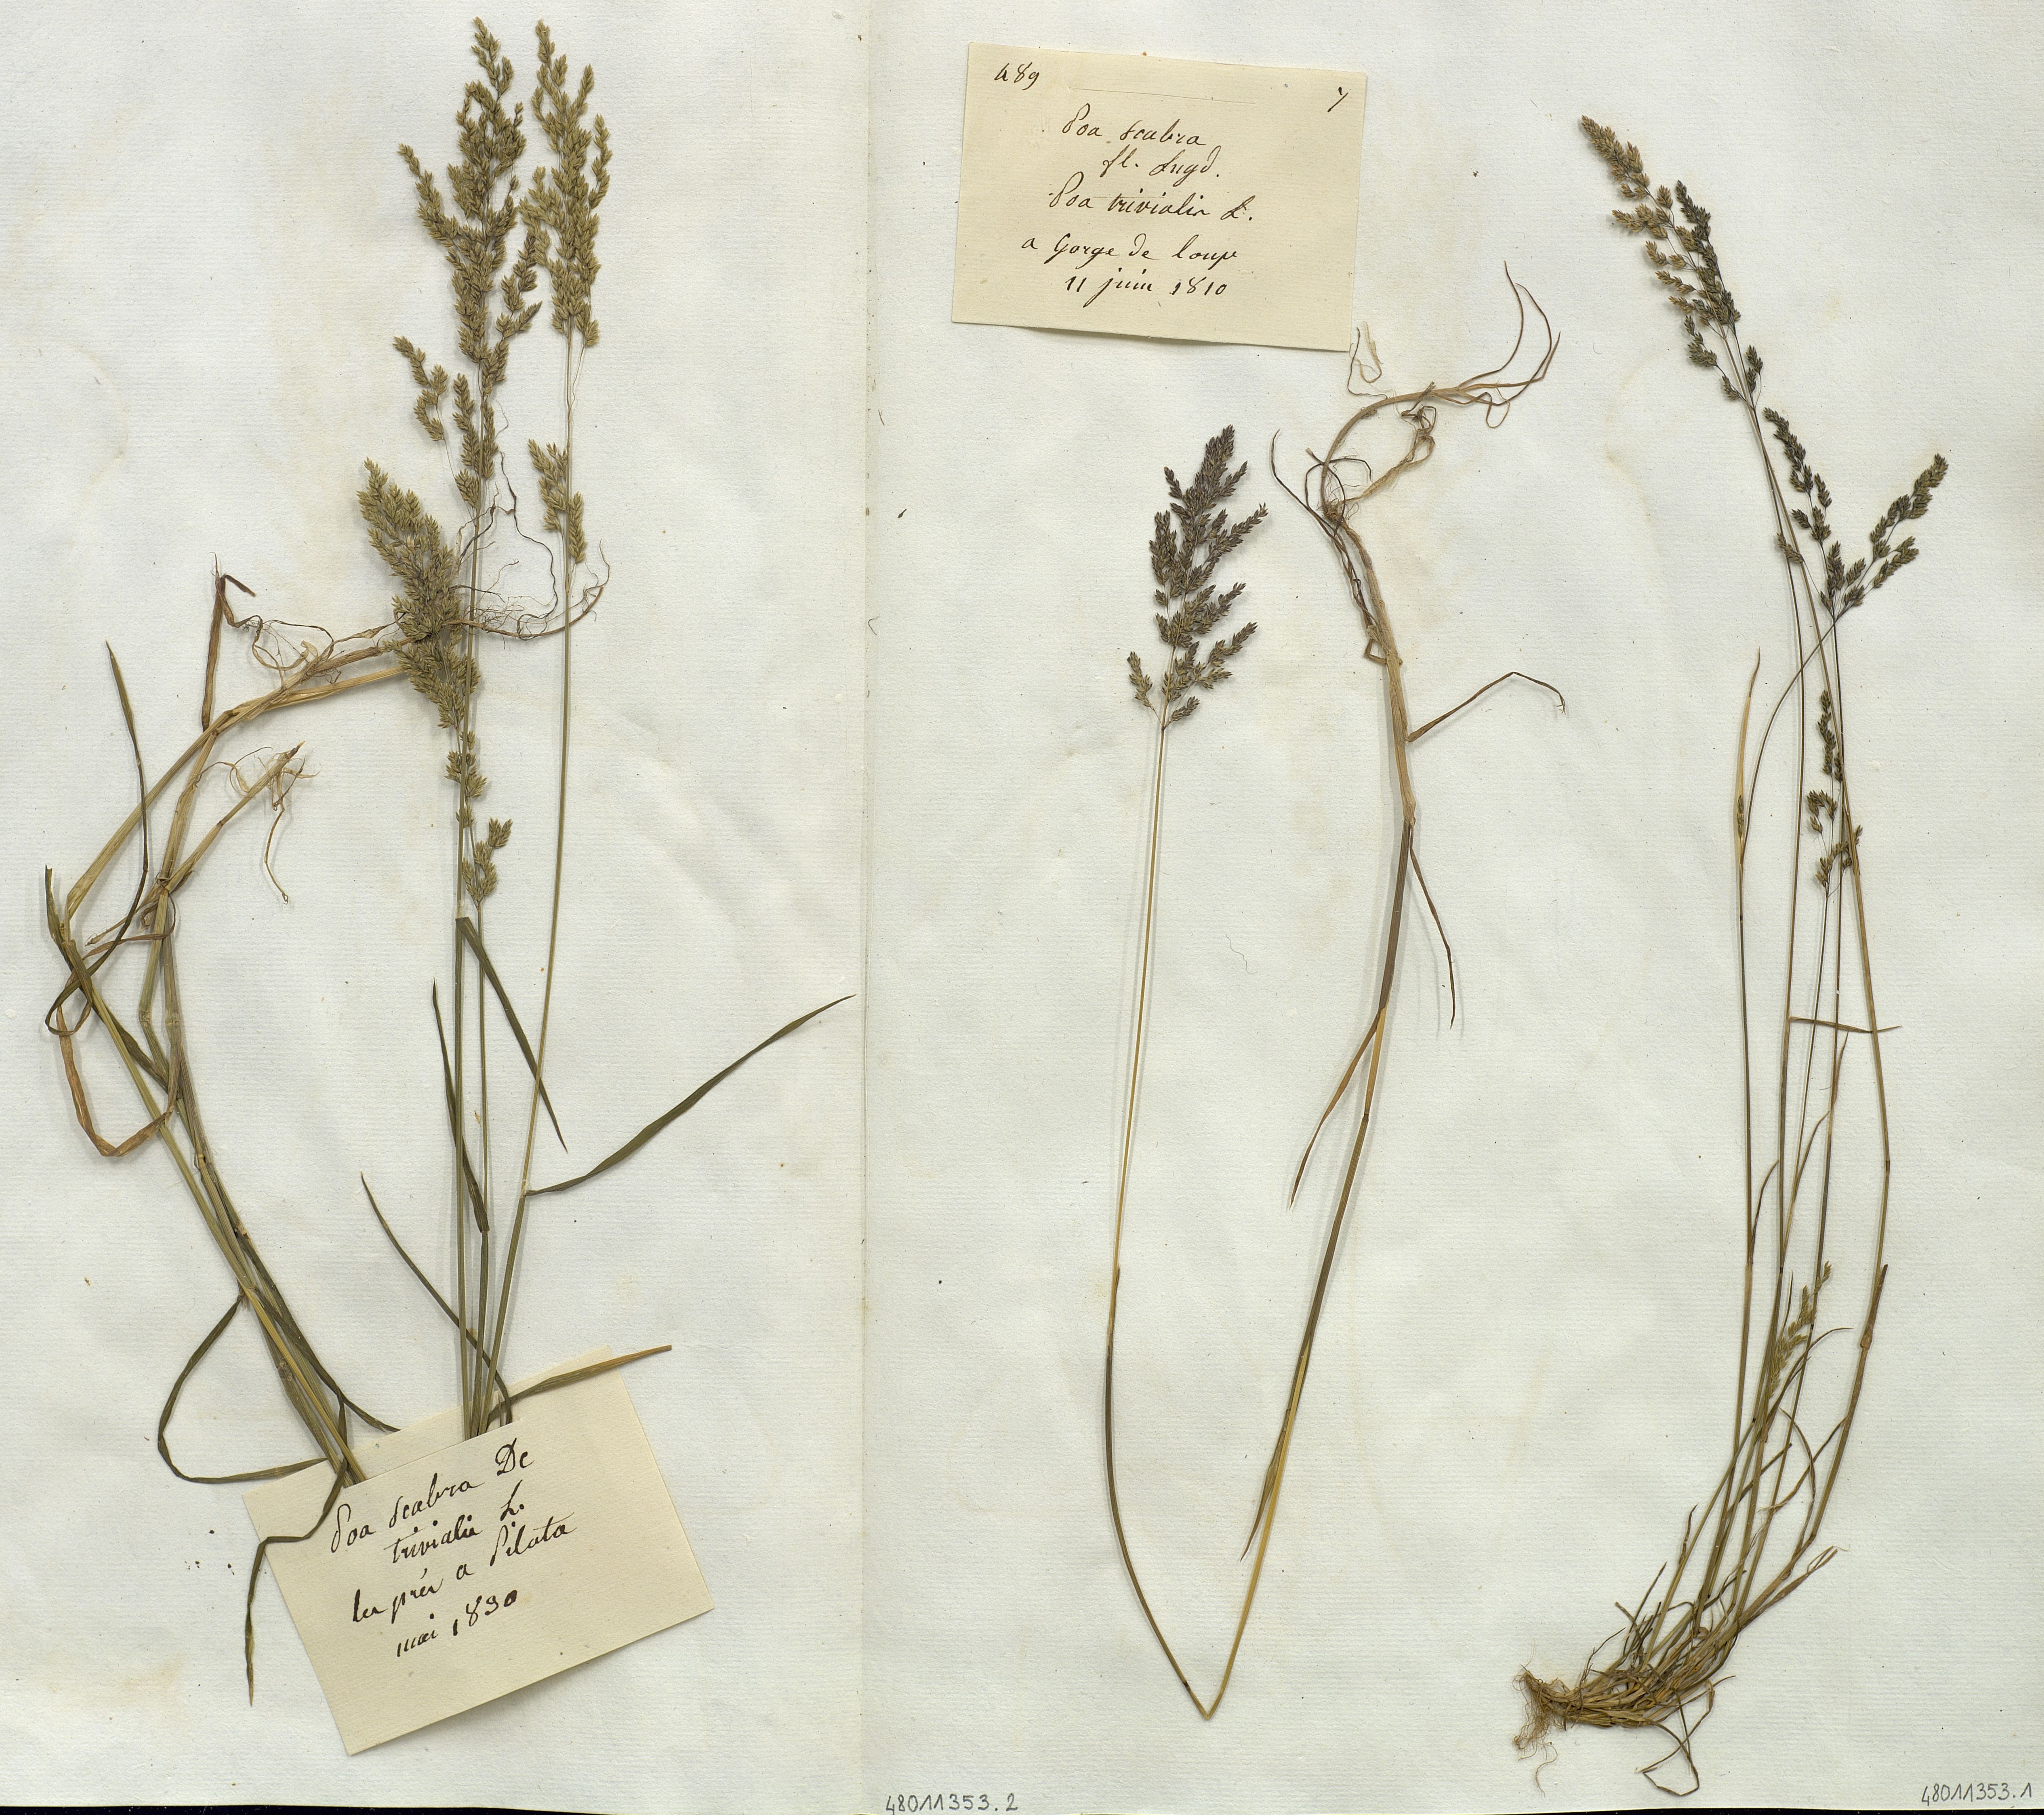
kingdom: Plantae
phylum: Tracheophyta
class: Liliopsida
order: Poales
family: Poaceae
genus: Poa
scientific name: Poa
